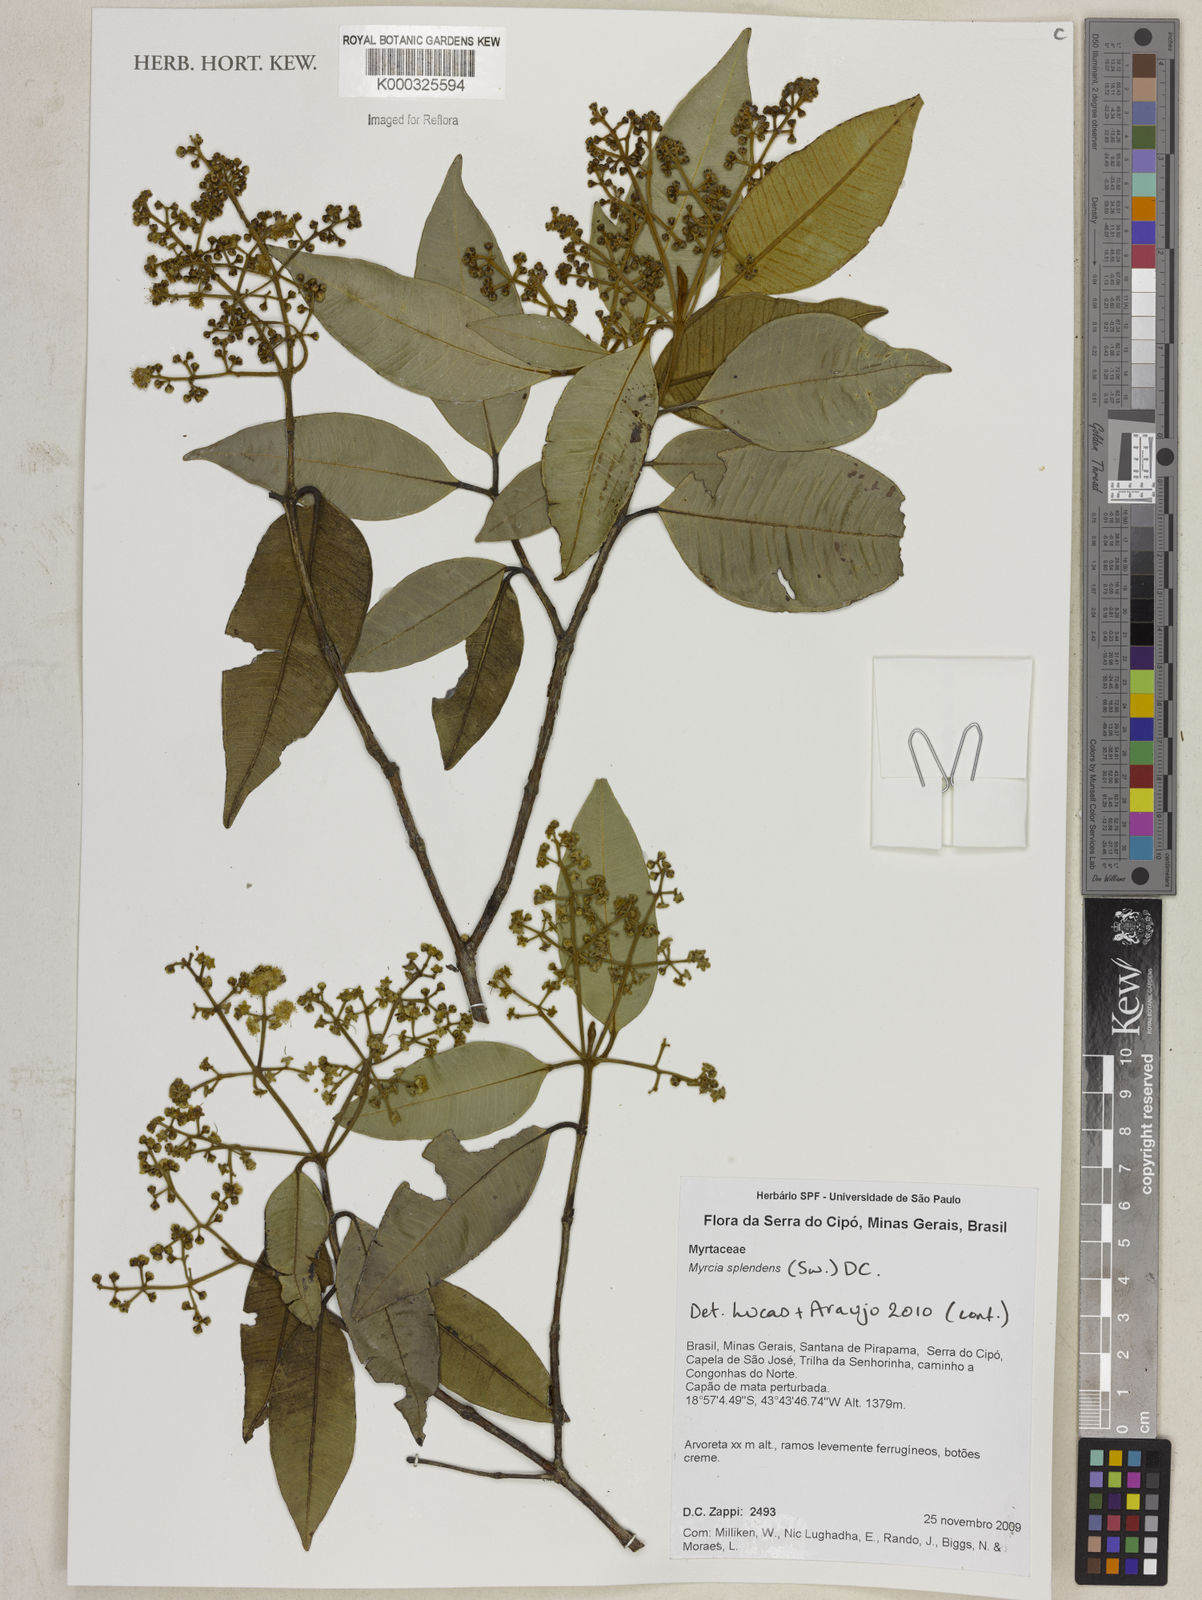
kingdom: Plantae
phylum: Tracheophyta
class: Magnoliopsida
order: Myrtales
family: Myrtaceae
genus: Myrcia
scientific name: Myrcia splendens
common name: Surinam cherry
